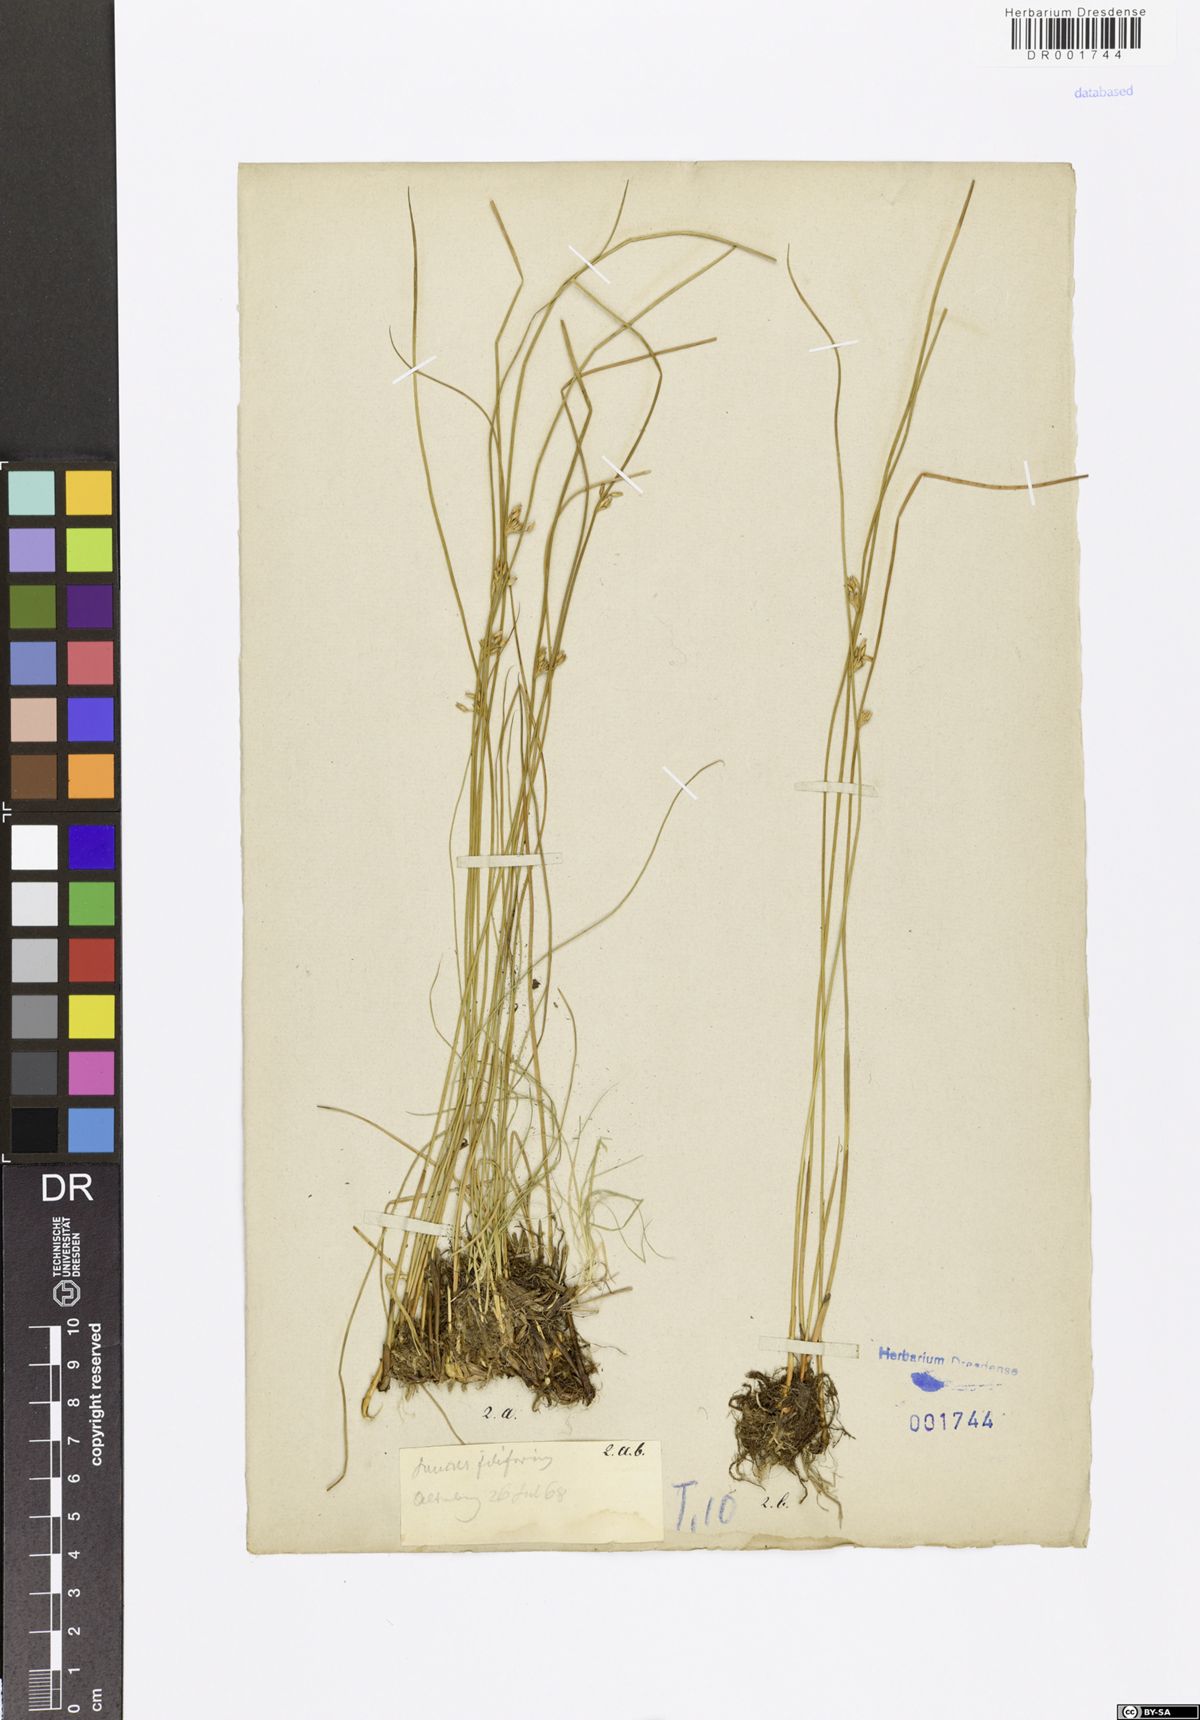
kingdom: Plantae
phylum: Tracheophyta
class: Liliopsida
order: Poales
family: Juncaceae
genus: Juncus
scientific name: Juncus inflexus
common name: Hard rush
